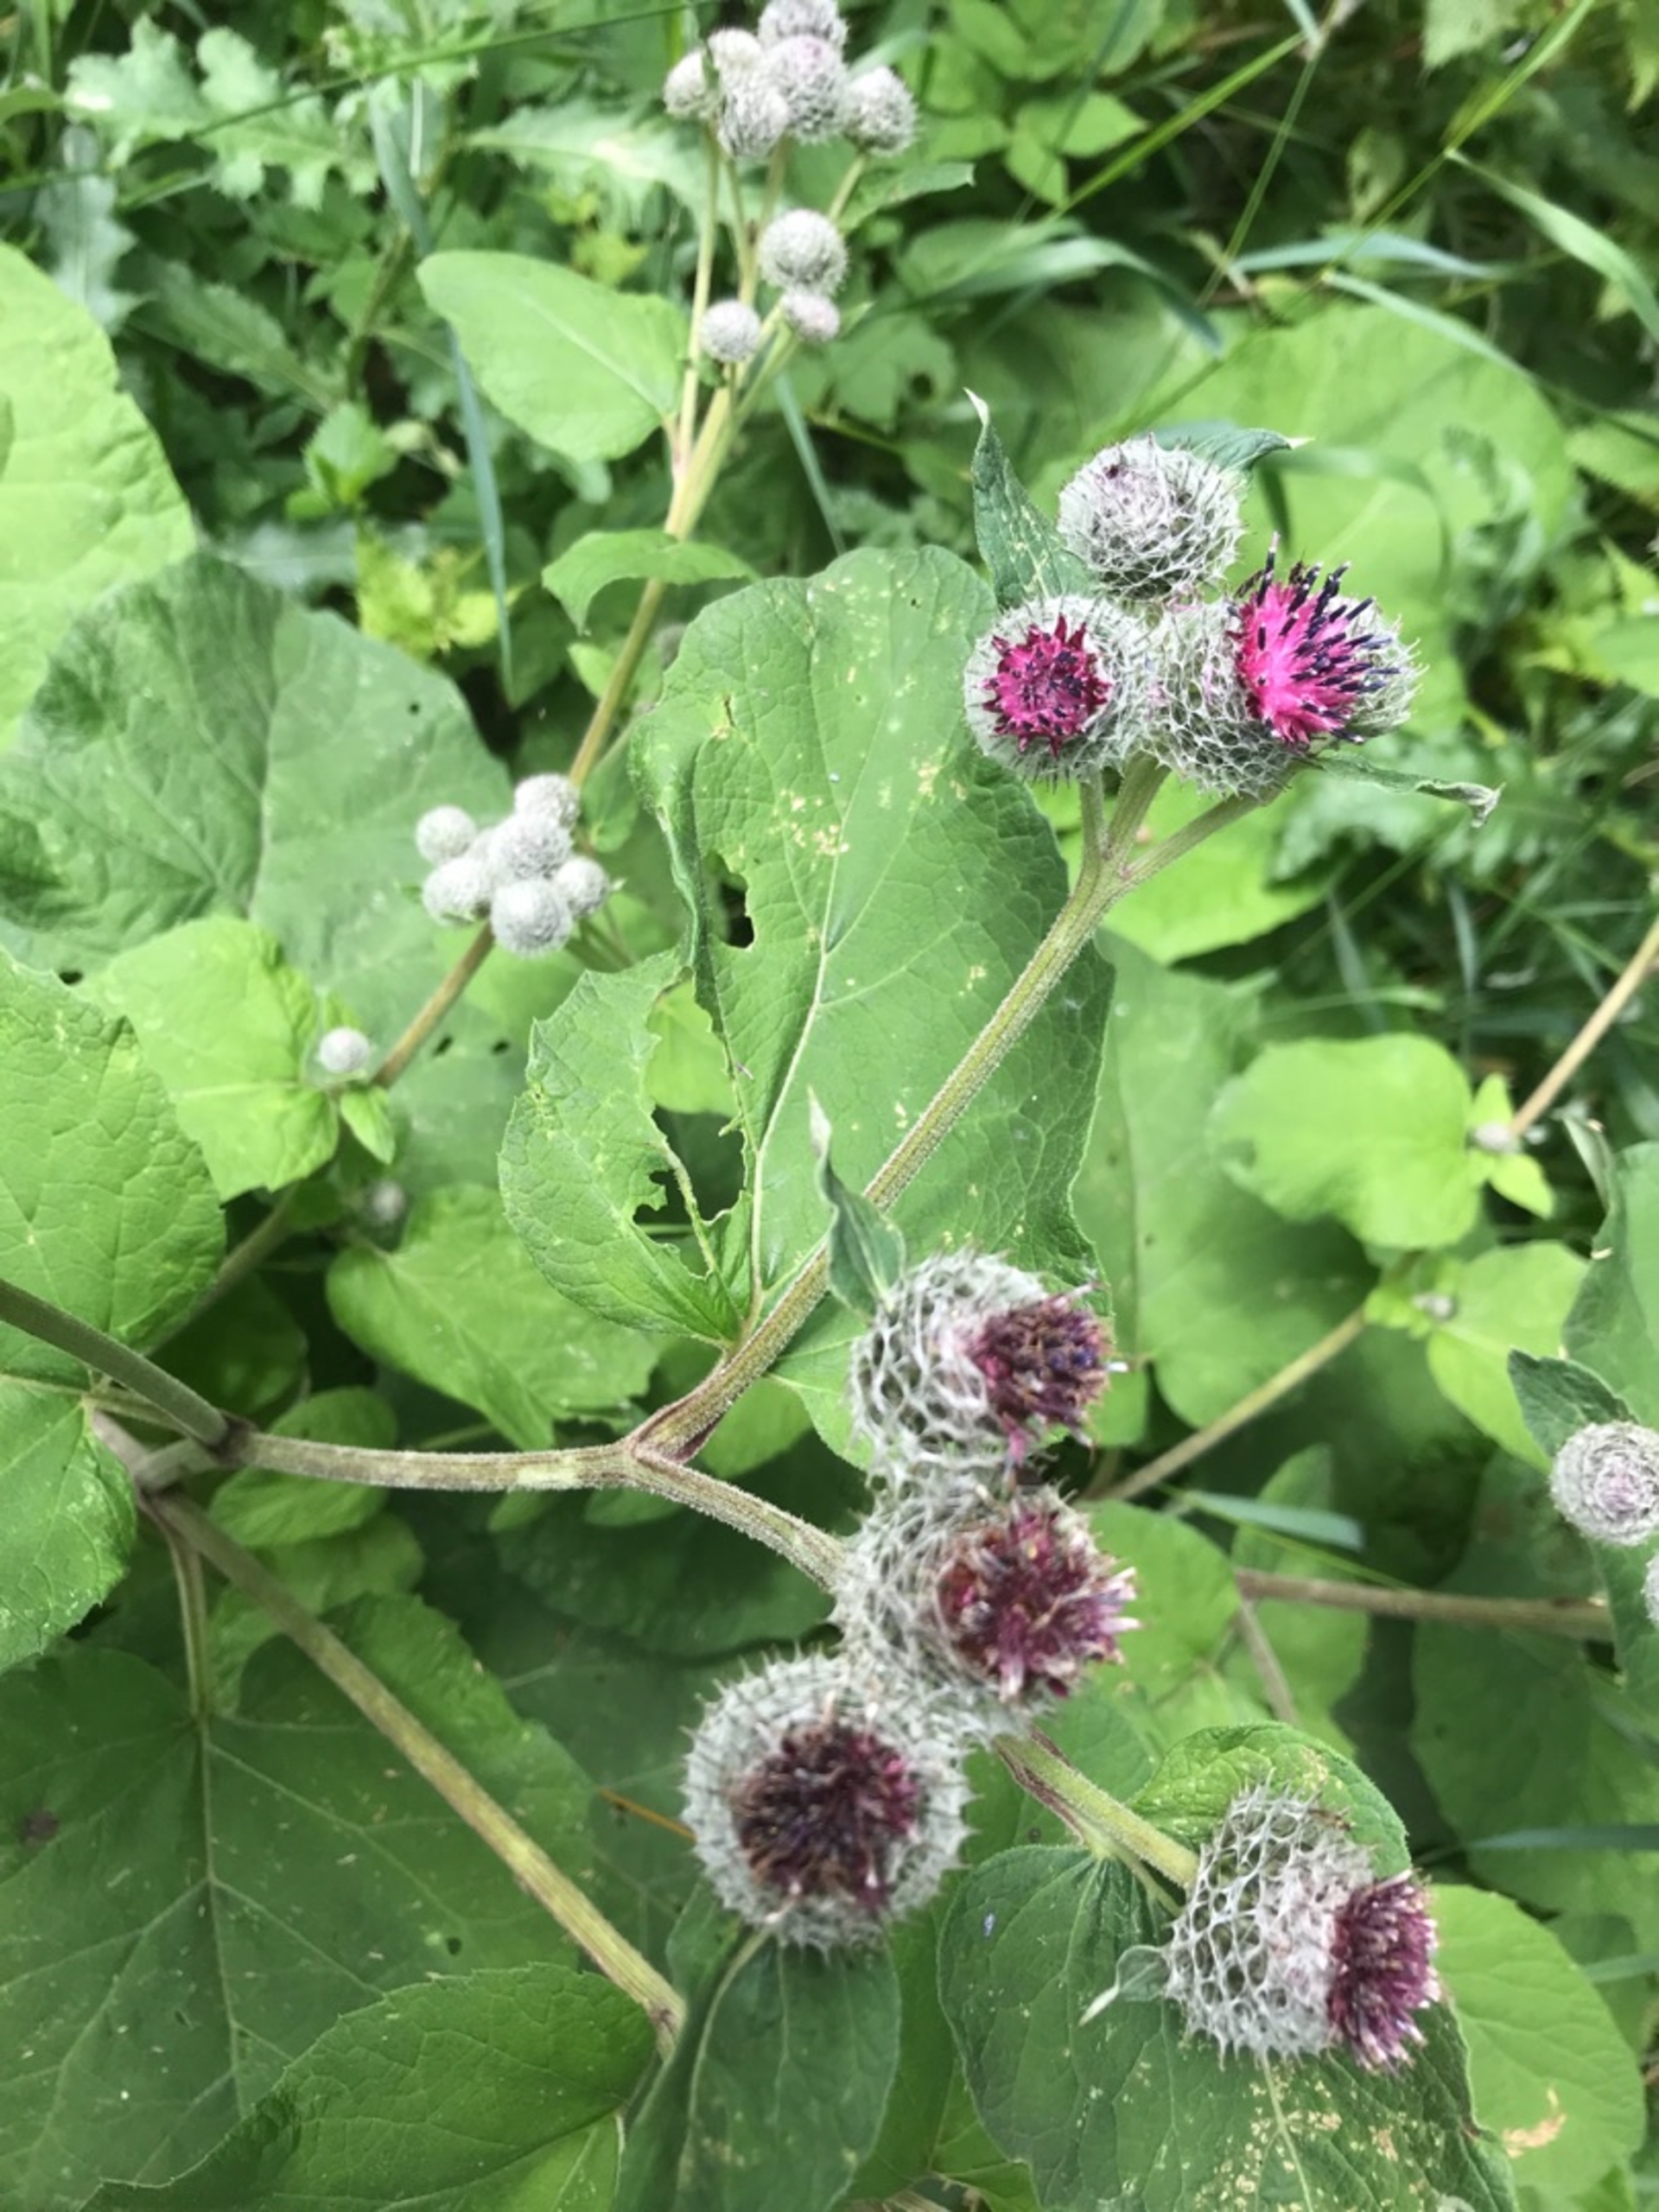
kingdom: Plantae
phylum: Tracheophyta
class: Magnoliopsida
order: Asterales
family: Asteraceae
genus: Arctium
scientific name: Arctium tomentosum
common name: Filtet burre
